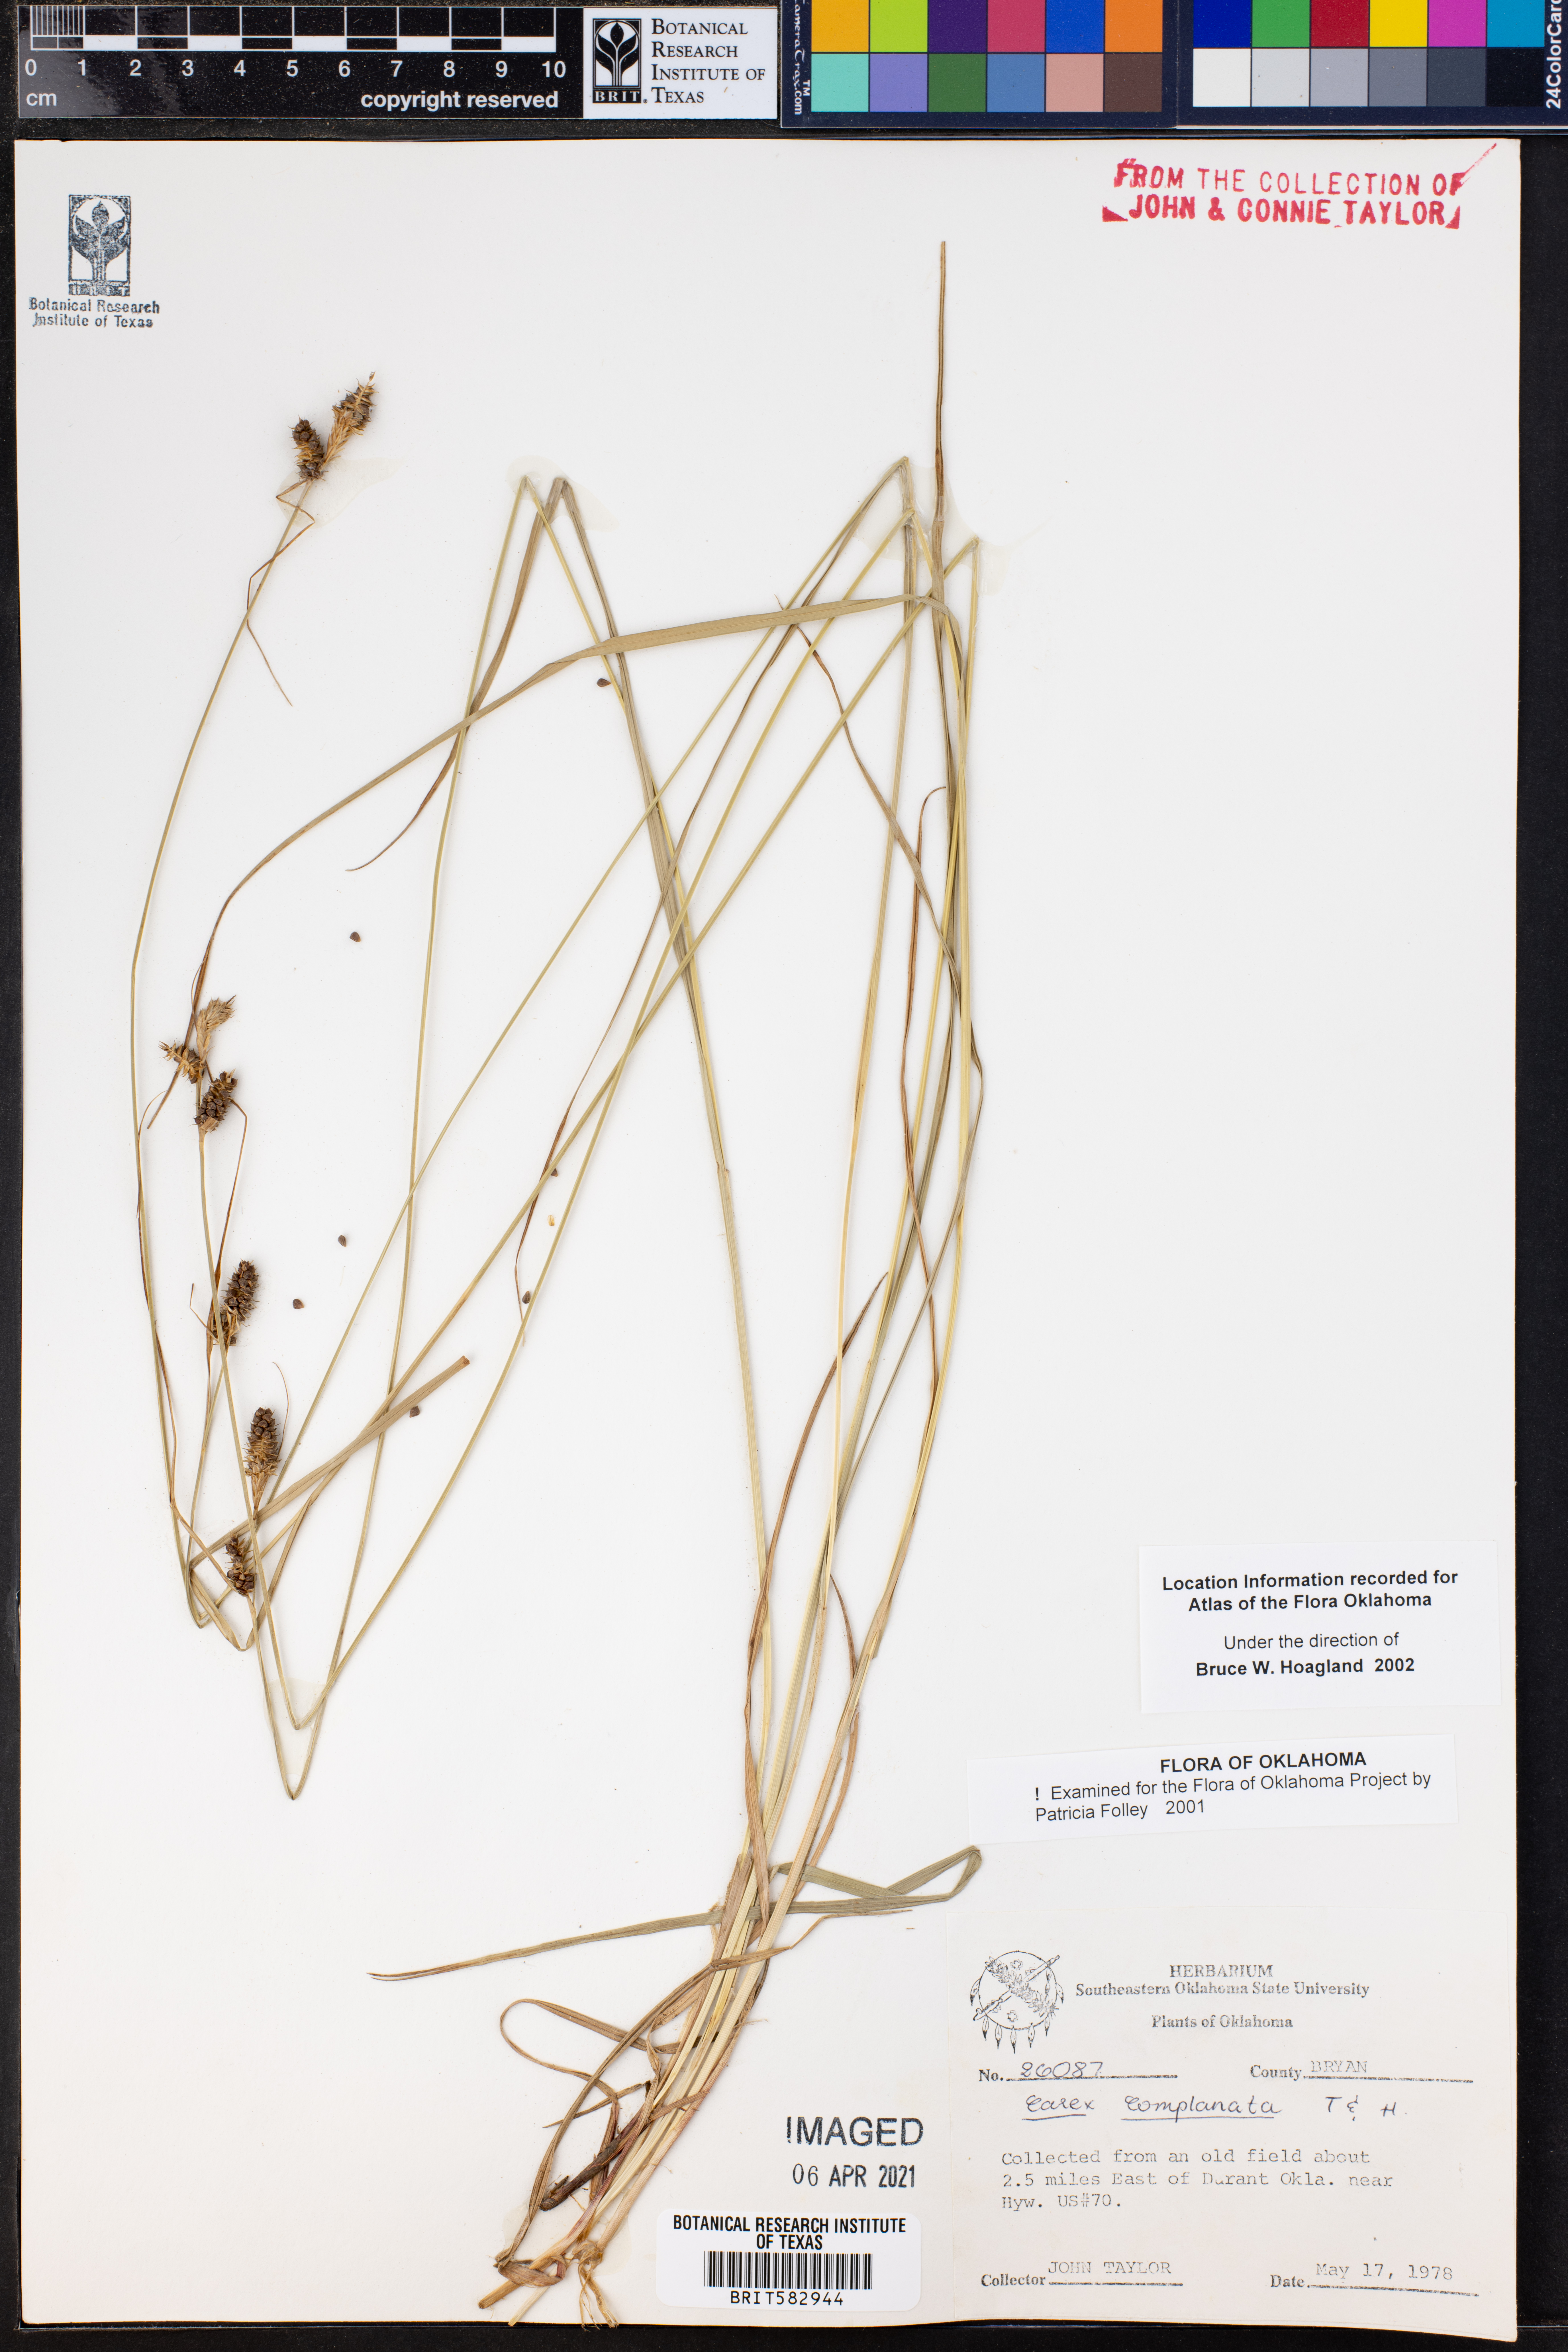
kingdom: Plantae
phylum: Tracheophyta
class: Liliopsida
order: Poales
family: Cyperaceae
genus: Carex
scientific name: Carex complanata
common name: Hirsute sedge
